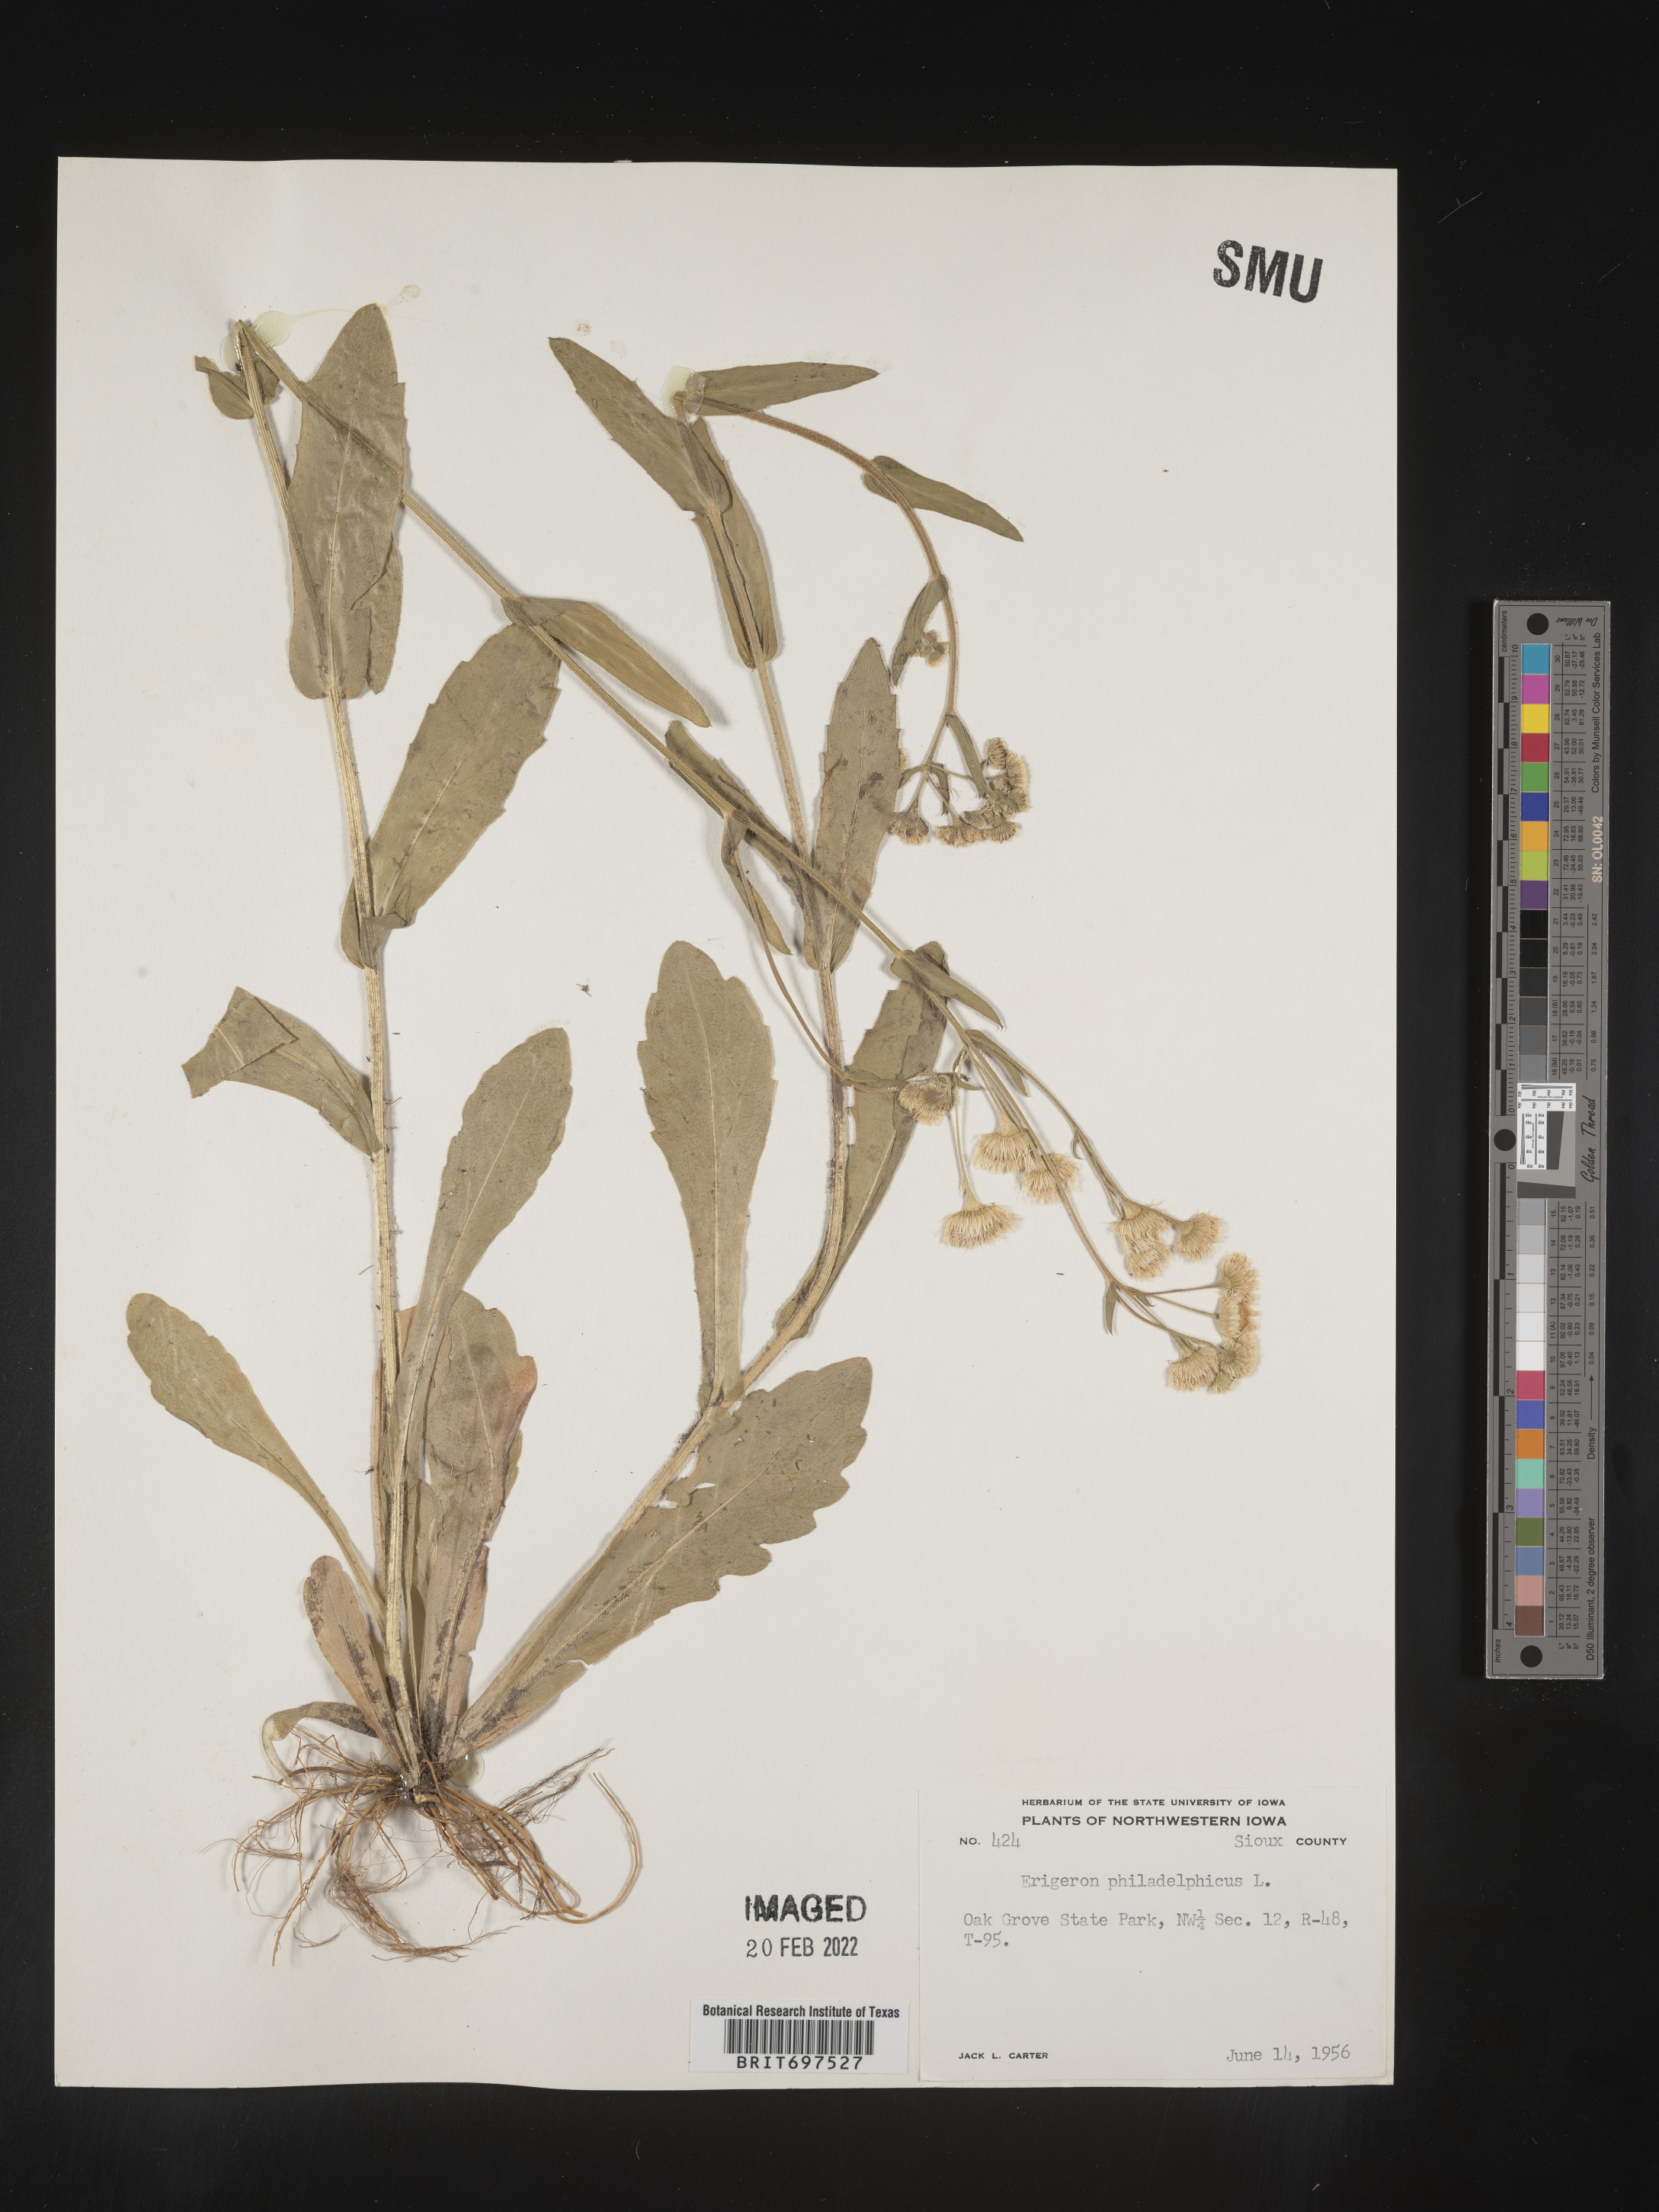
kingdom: Plantae
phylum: Tracheophyta
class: Magnoliopsida
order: Asterales
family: Asteraceae
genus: Erigeron
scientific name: Erigeron philadelphicus
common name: Robin's-plantain
